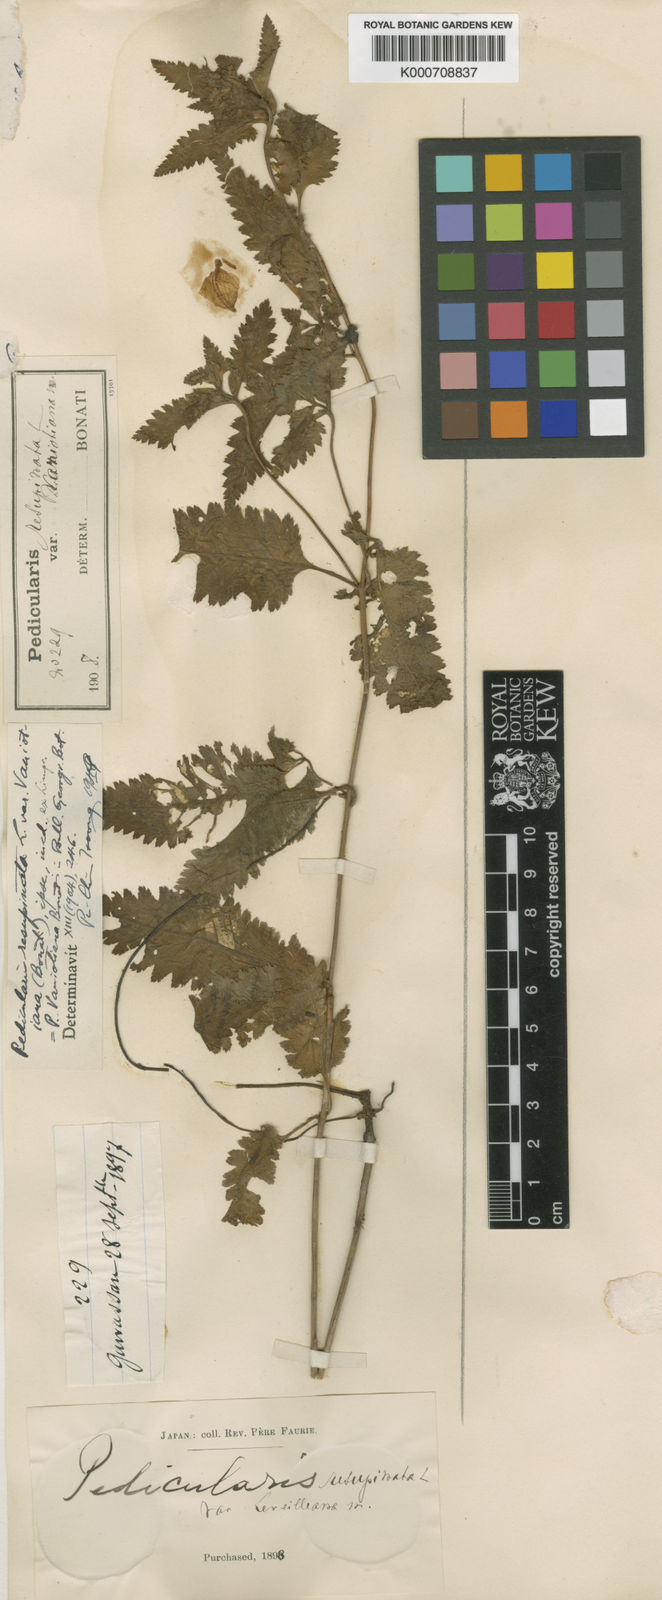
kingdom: Plantae
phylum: Tracheophyta
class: Magnoliopsida
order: Lamiales
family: Orobanchaceae
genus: Pedicularis
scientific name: Pedicularis resupinata
